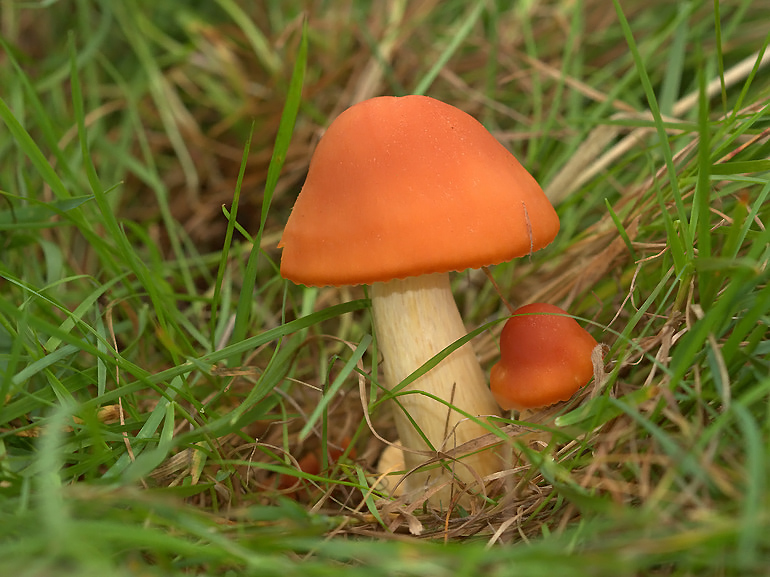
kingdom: Fungi
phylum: Basidiomycota
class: Agaricomycetes
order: Agaricales
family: Hygrophoraceae
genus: Cuphophyllus
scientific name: Cuphophyllus pratensis
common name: eng-vokshat
